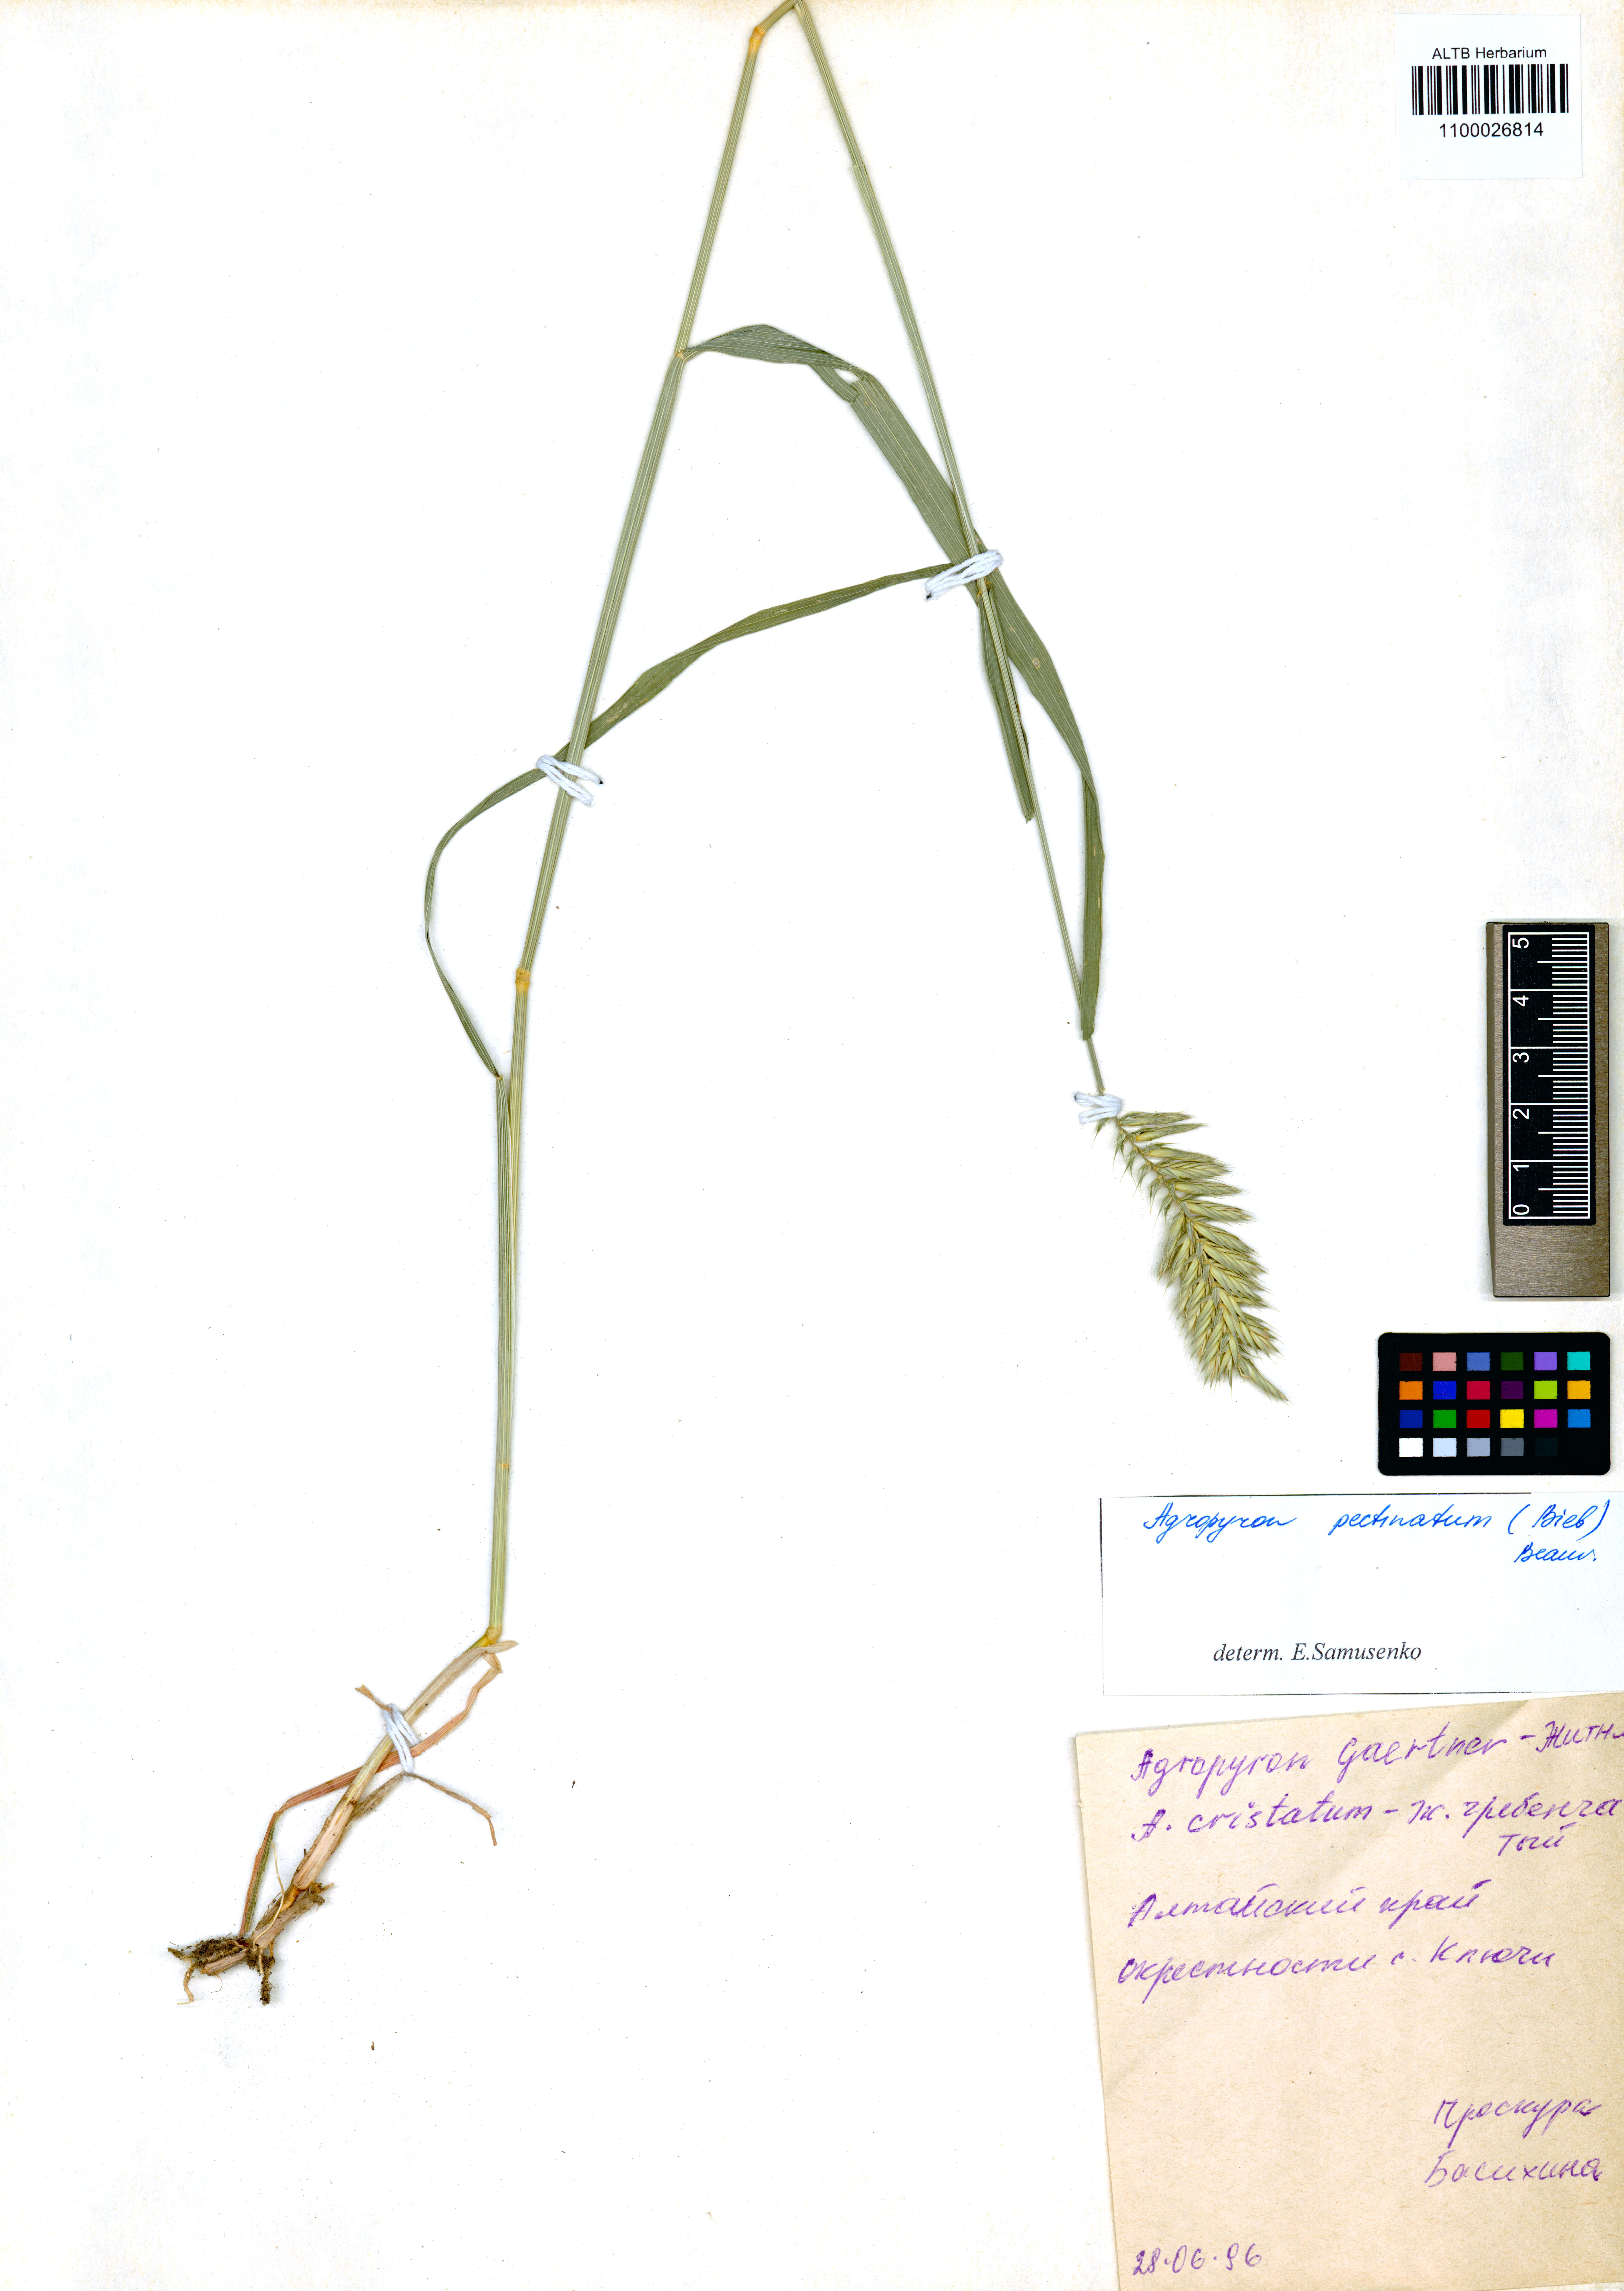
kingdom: Plantae
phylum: Tracheophyta
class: Liliopsida
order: Poales
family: Poaceae
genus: Agropyron
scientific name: Agropyron cristatum
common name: Crested wheatgrass
